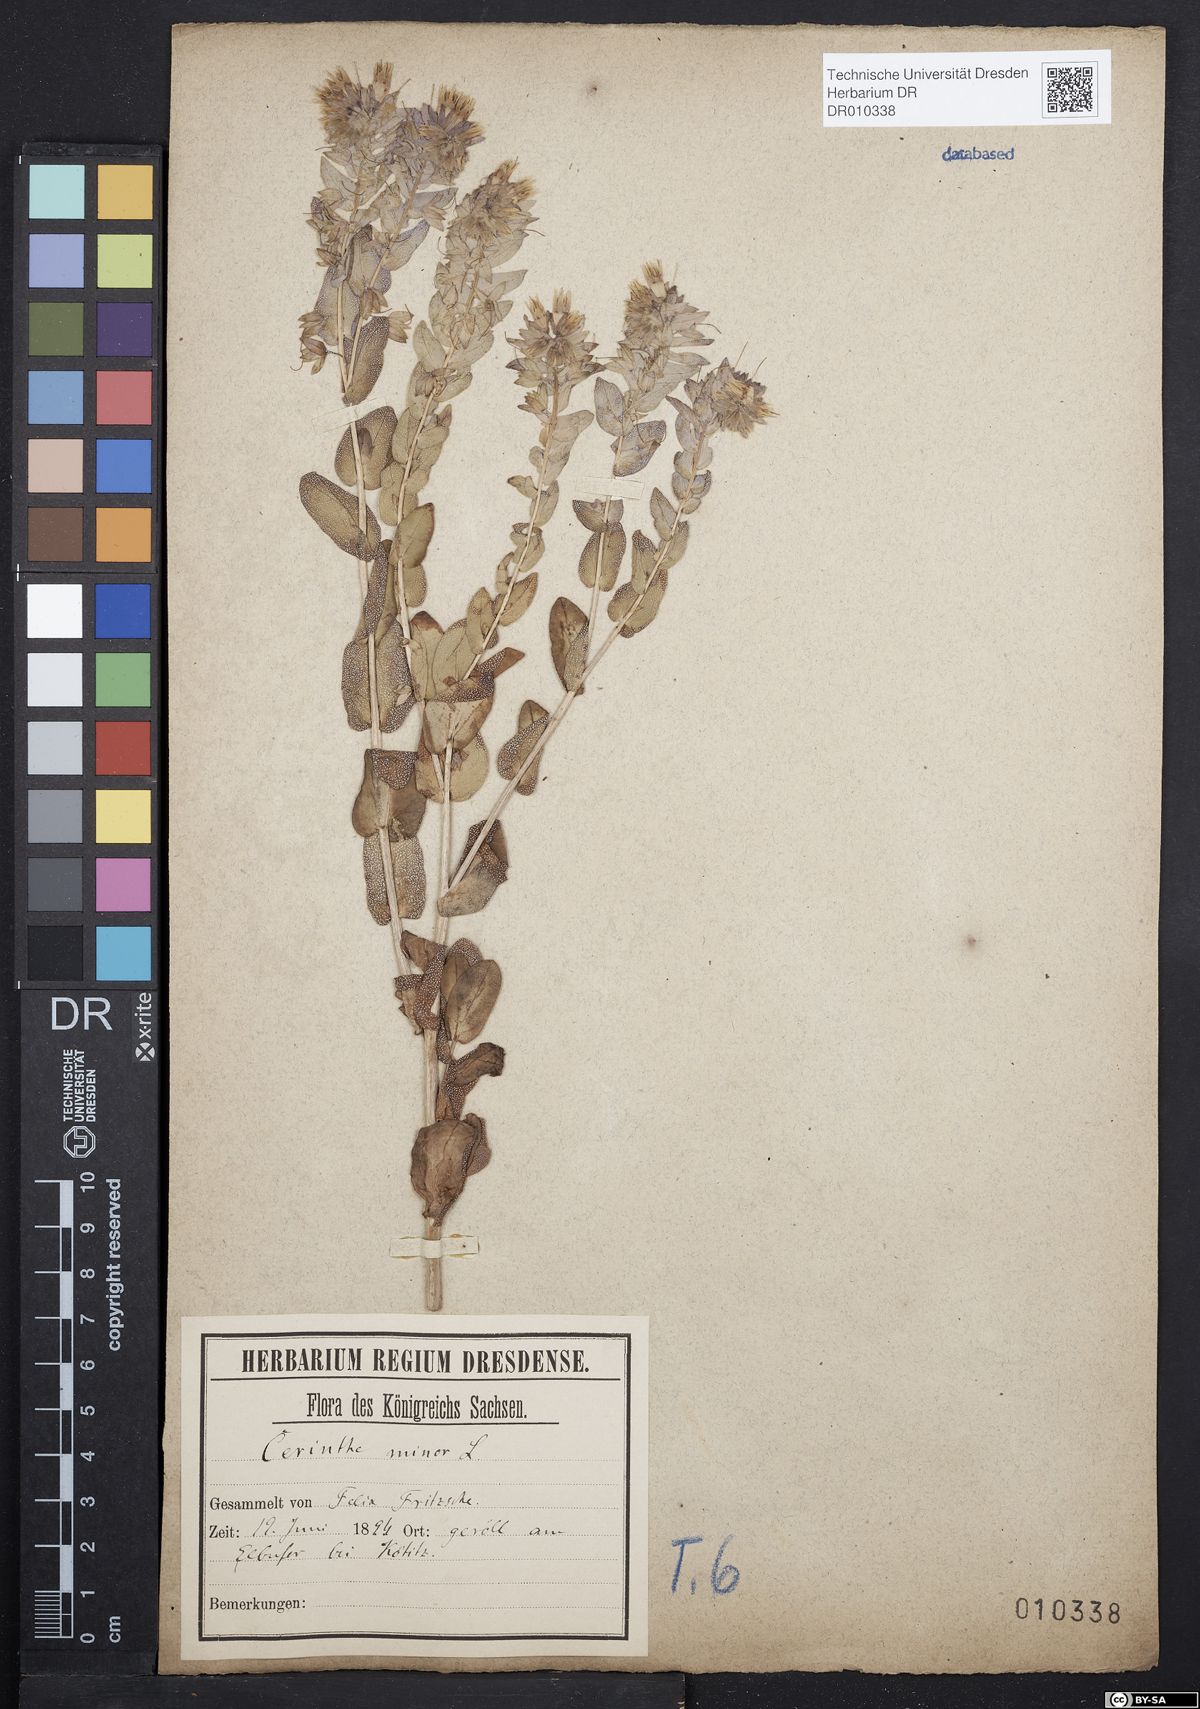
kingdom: Plantae
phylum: Tracheophyta
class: Magnoliopsida
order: Boraginales
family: Boraginaceae
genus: Cerinthe
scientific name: Cerinthe minor
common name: Lesser honeywort
